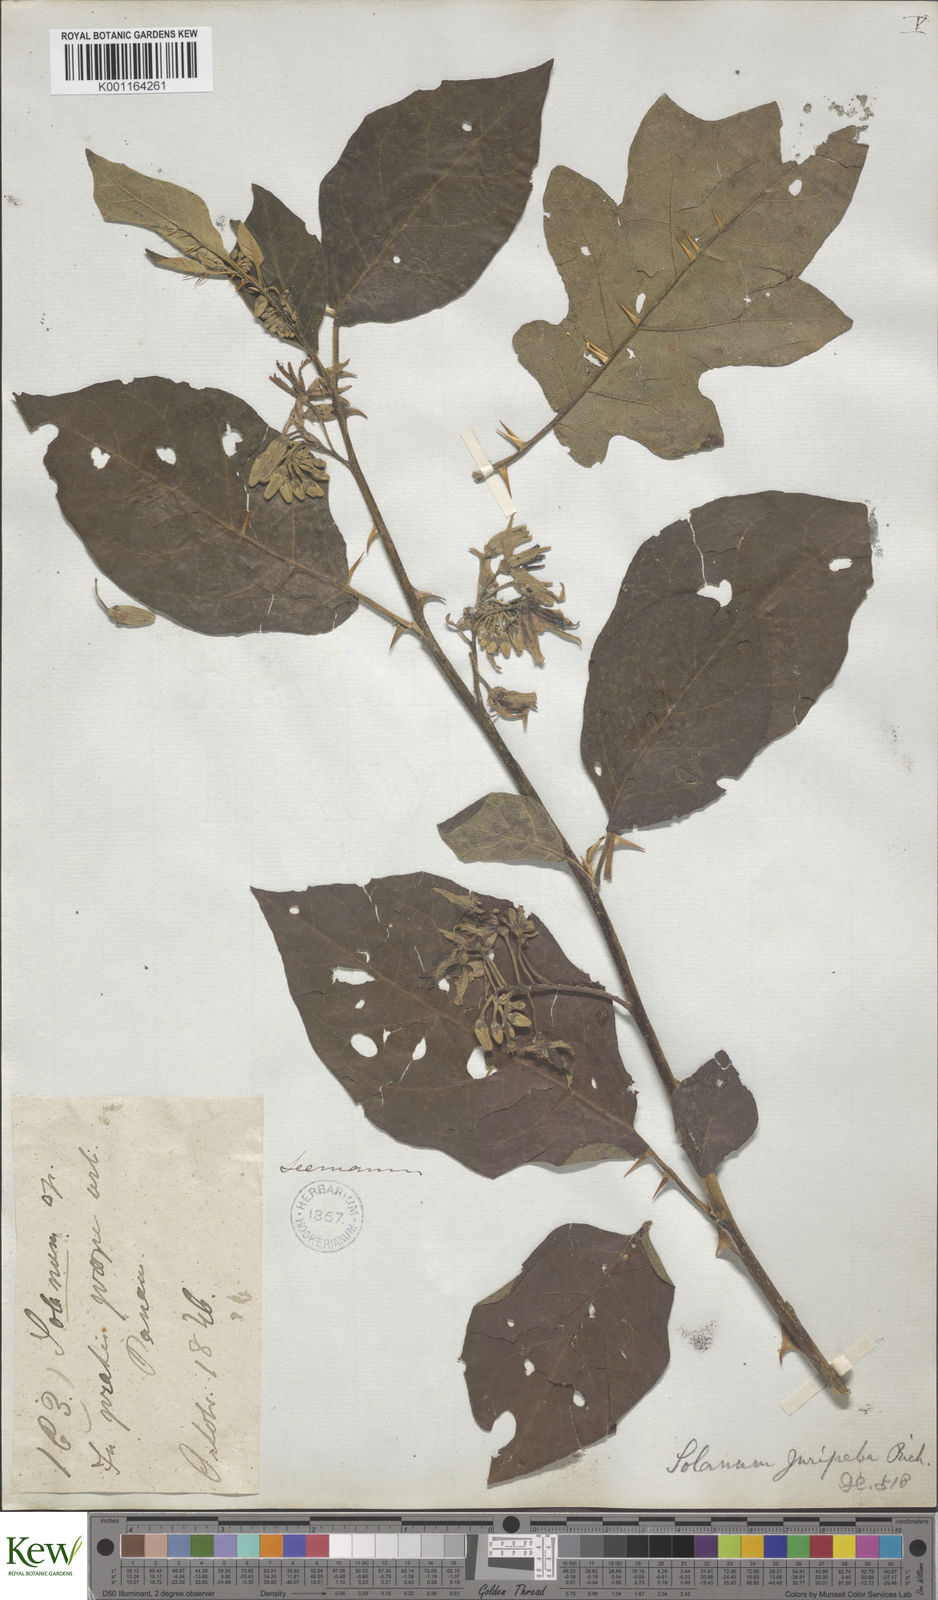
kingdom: Plantae
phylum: Tracheophyta
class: Magnoliopsida
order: Solanales
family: Solanaceae
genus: Solanum
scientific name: Solanum subinerme
